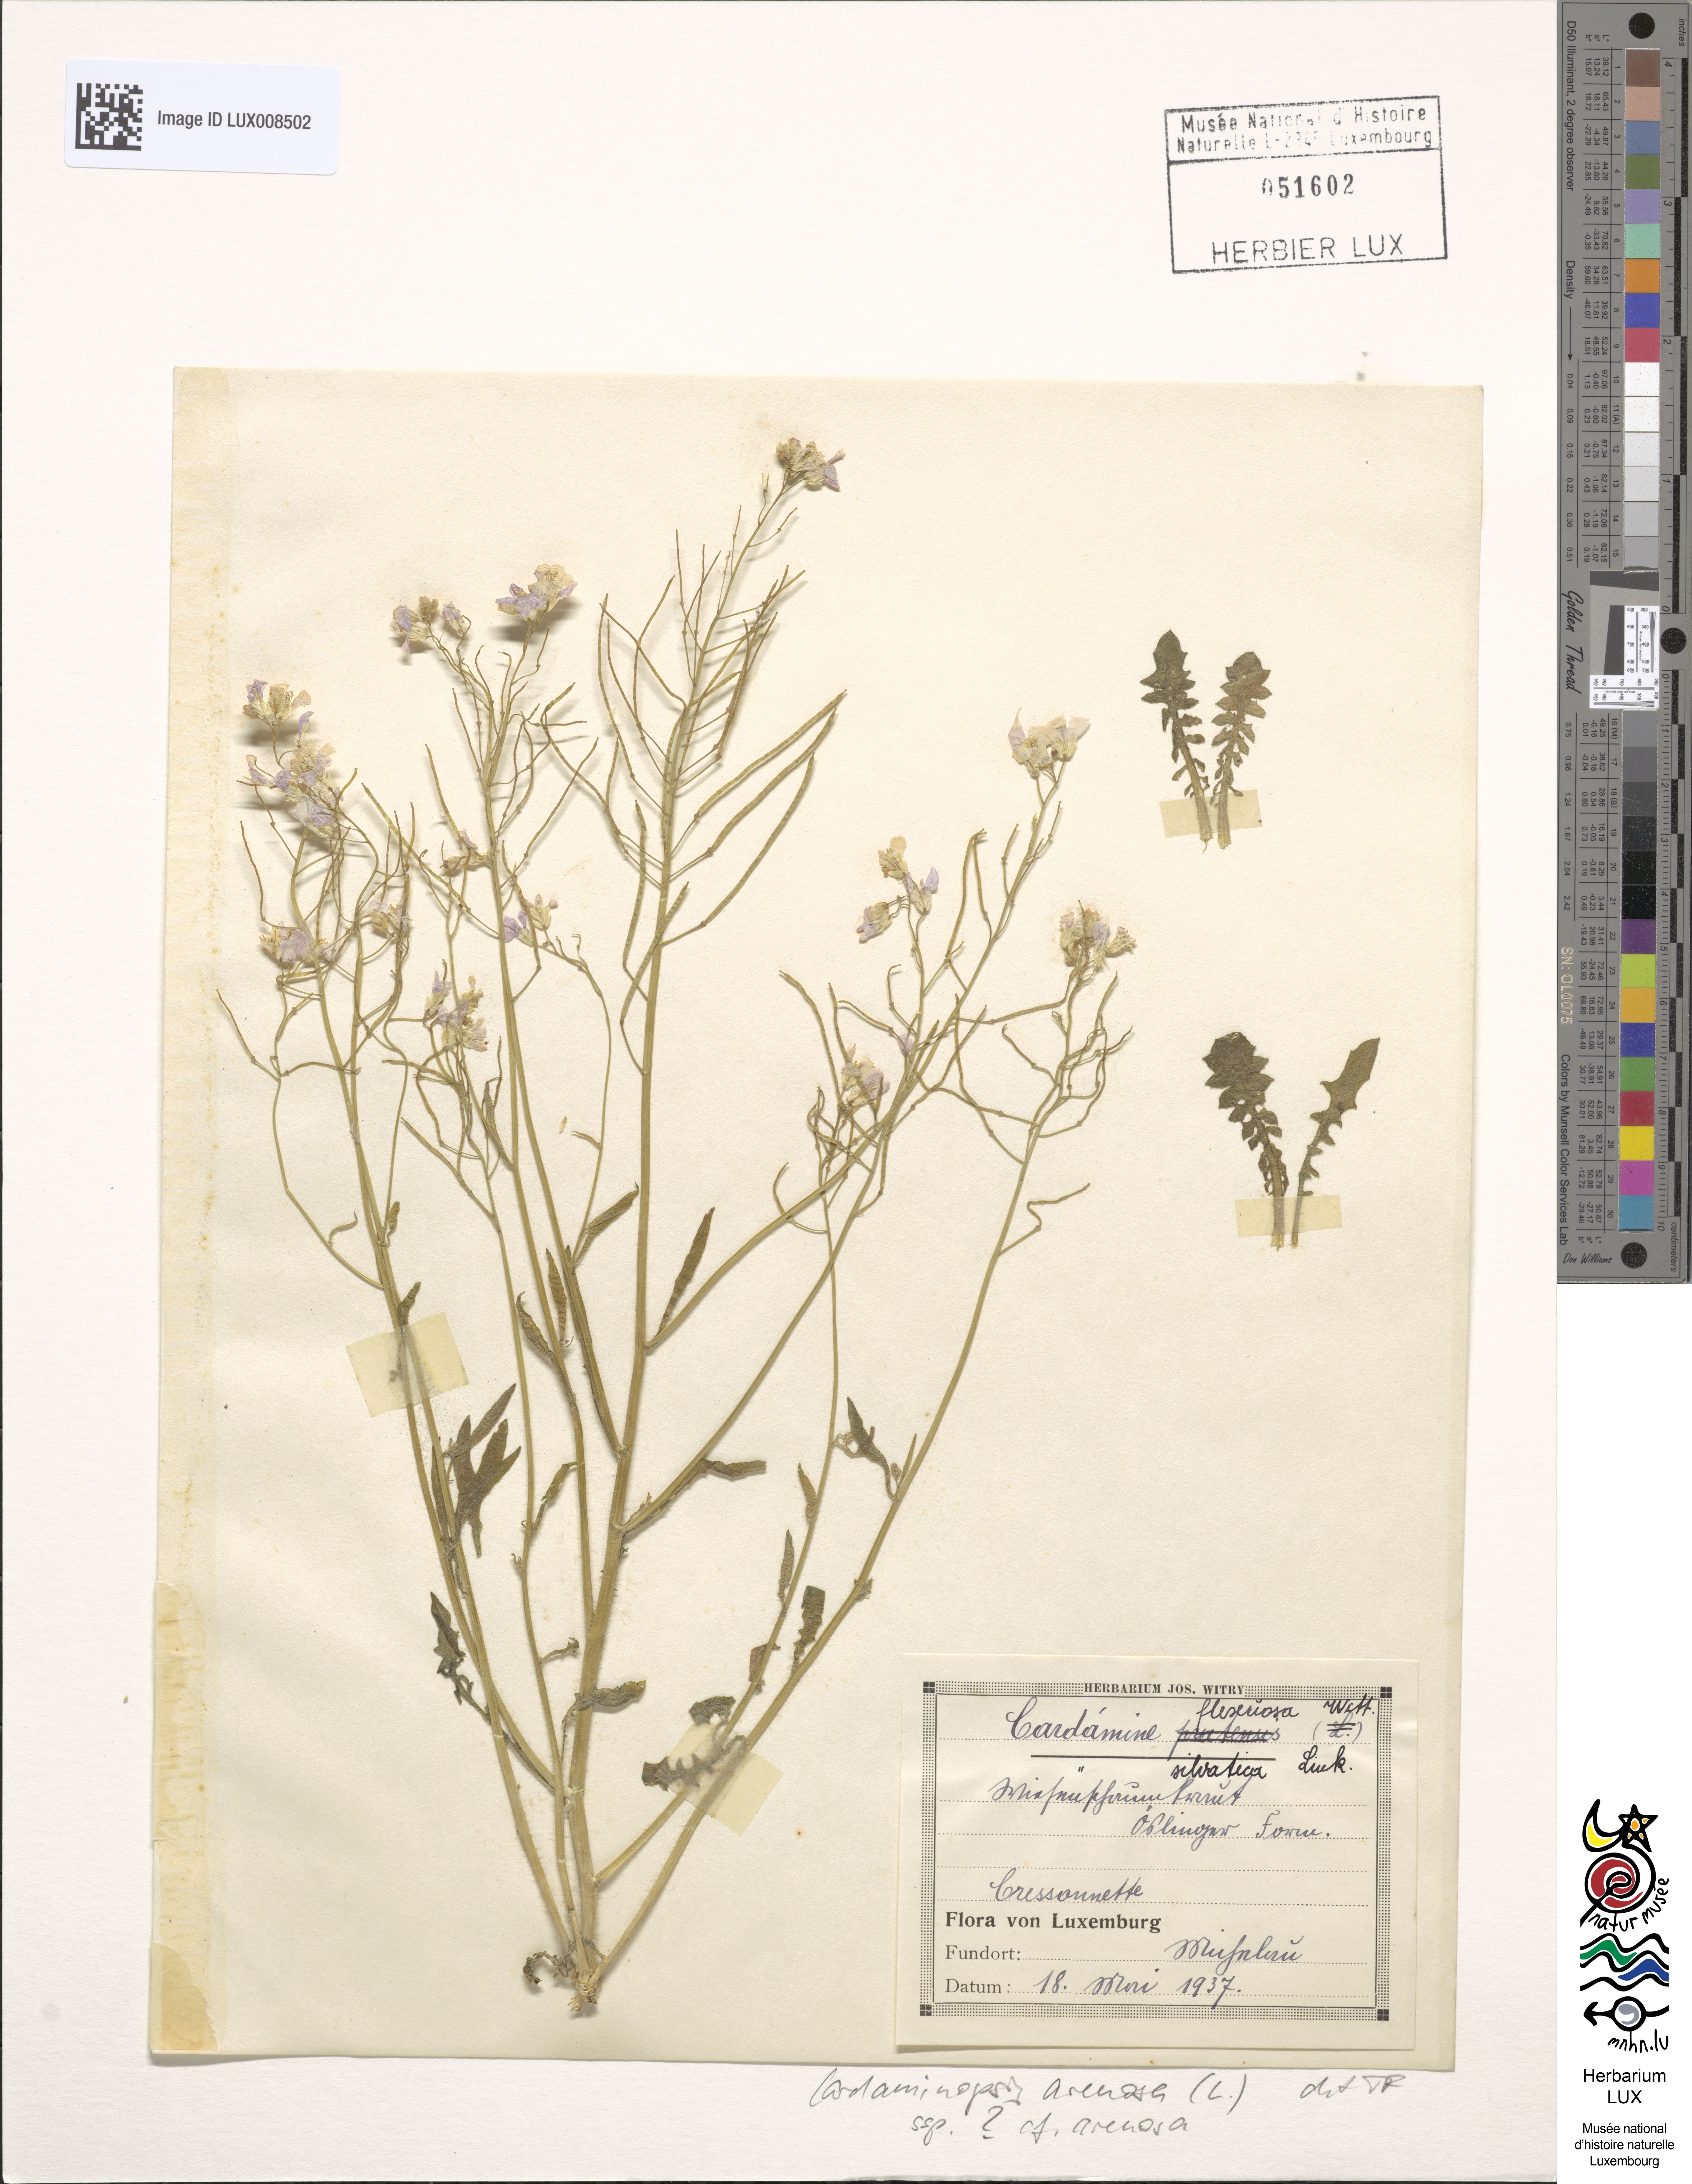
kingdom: Plantae
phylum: Tracheophyta
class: Magnoliopsida
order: Brassicales
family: Brassicaceae
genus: Arabidopsis
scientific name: Arabidopsis arenosa
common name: Sand rock-cress
